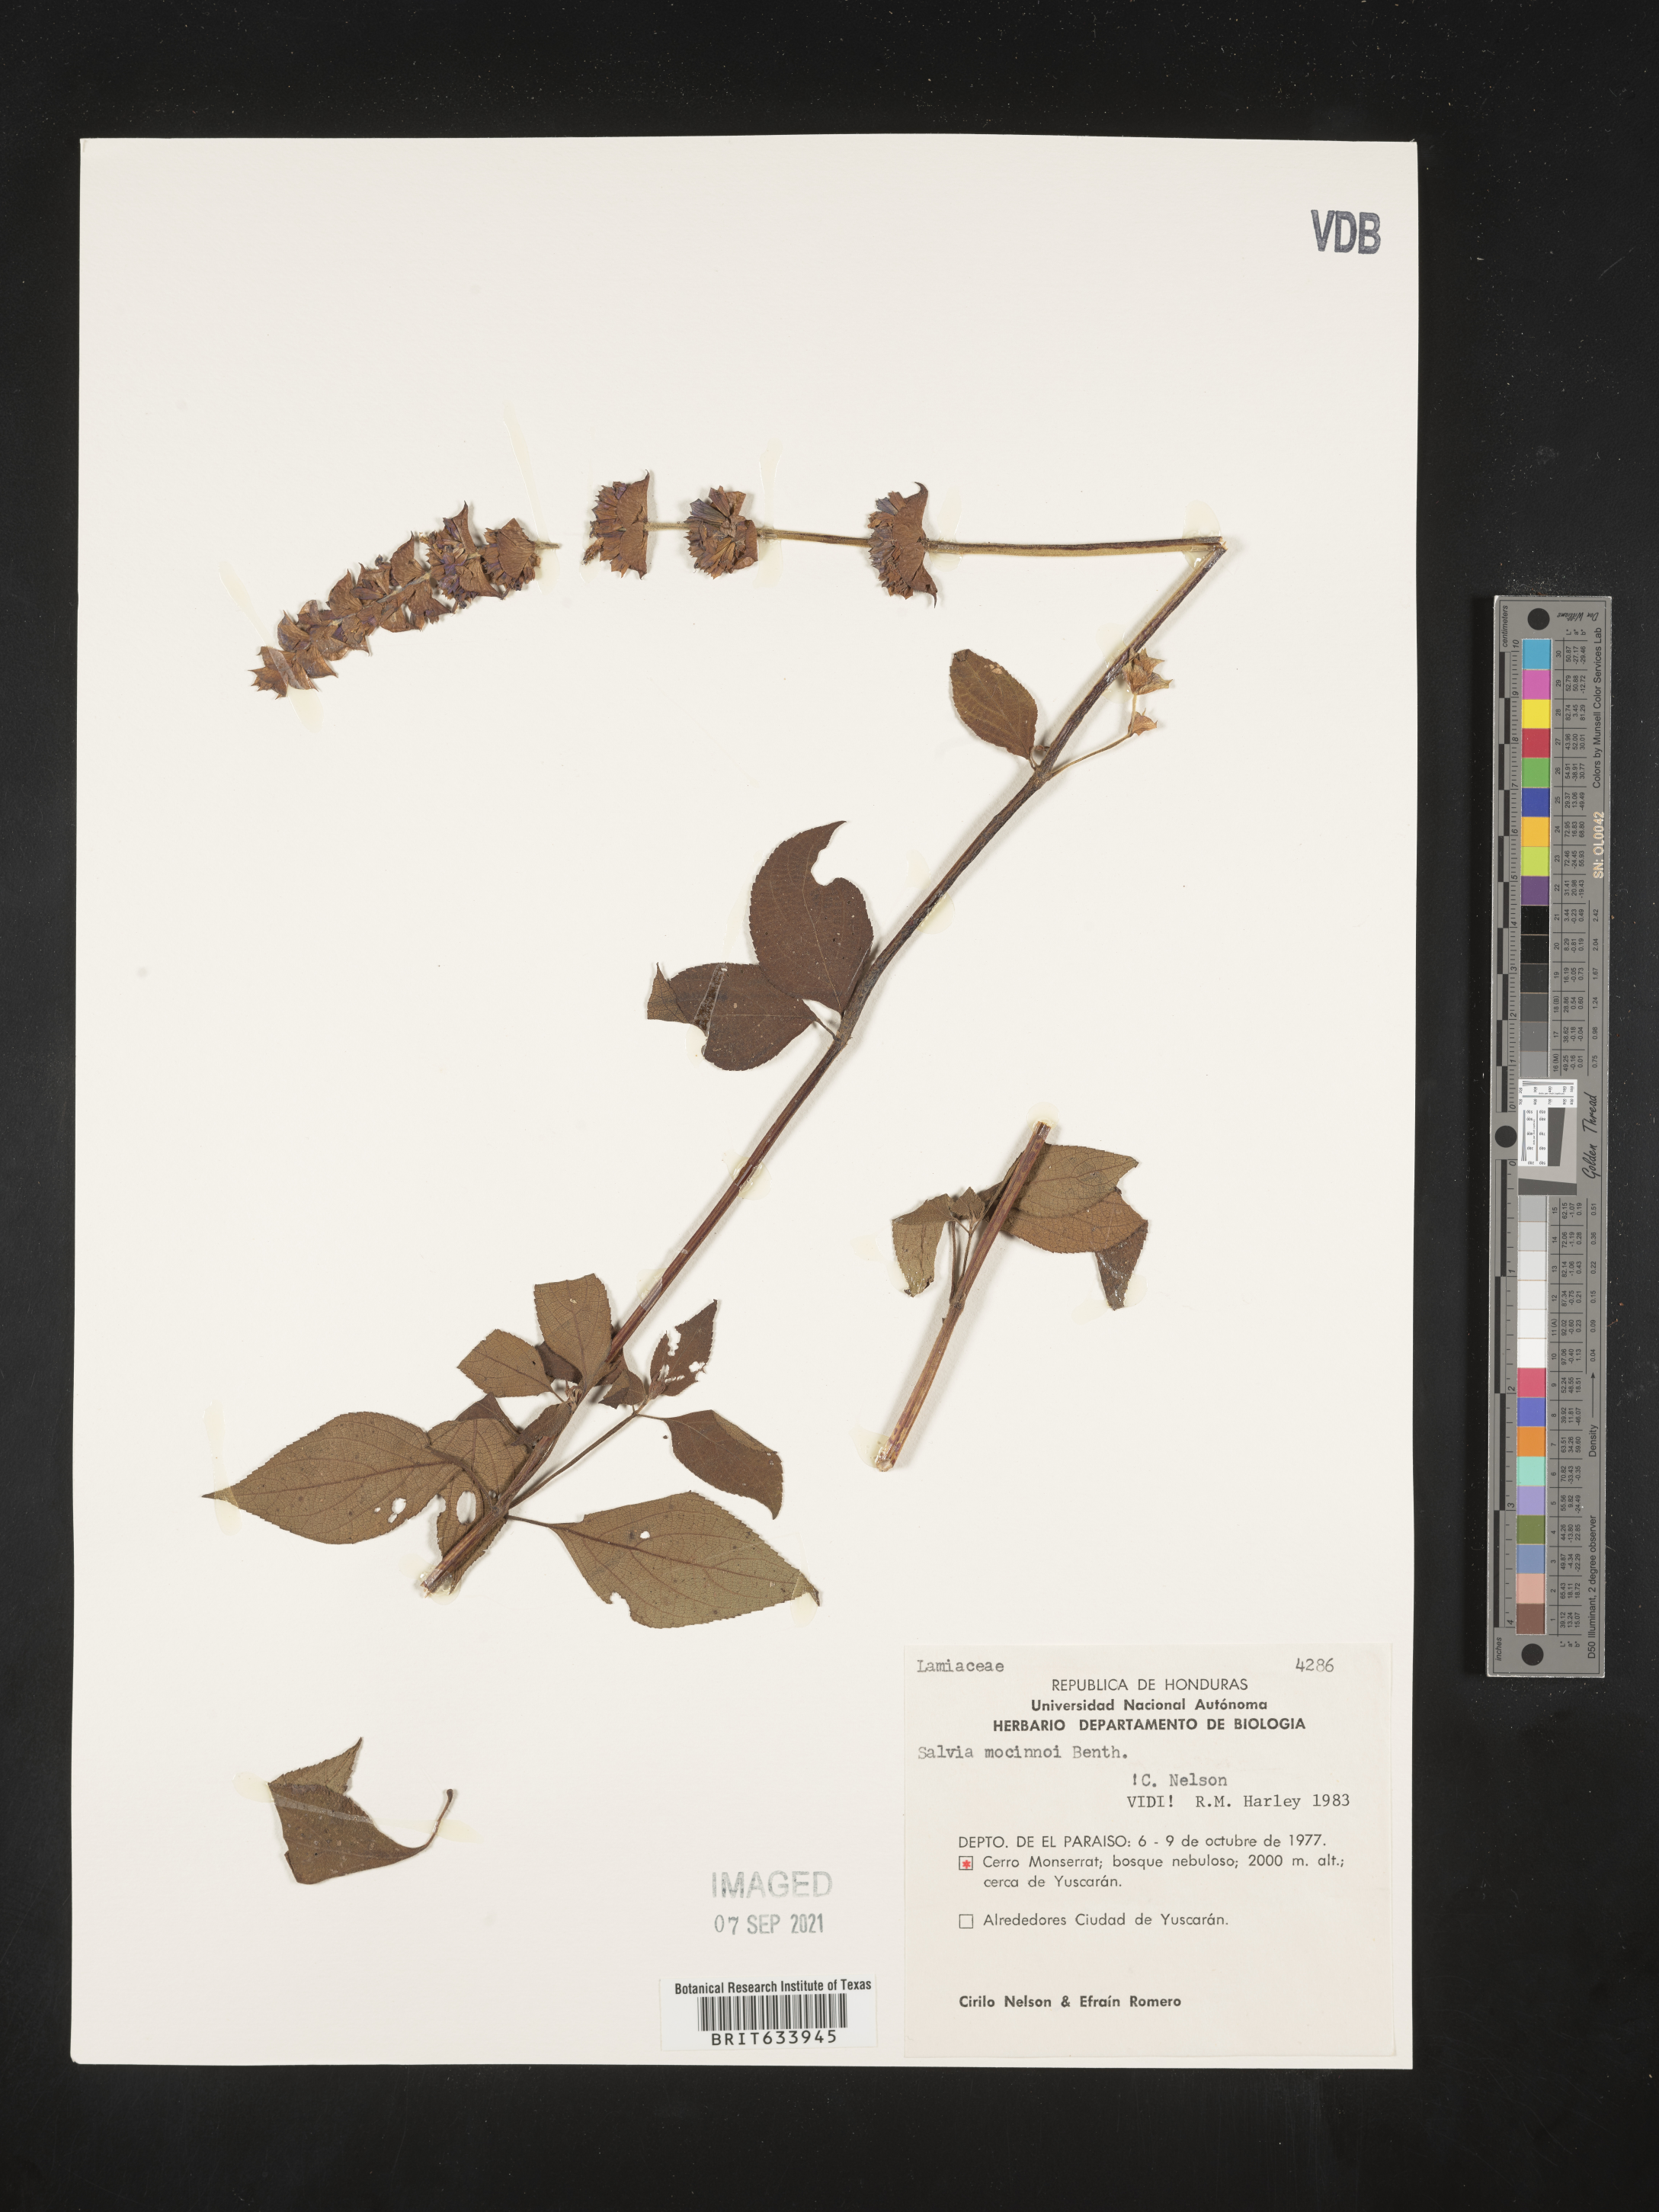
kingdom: Plantae
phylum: Tracheophyta
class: Magnoliopsida
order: Lamiales
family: Lamiaceae
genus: Salvia
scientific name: Salvia
